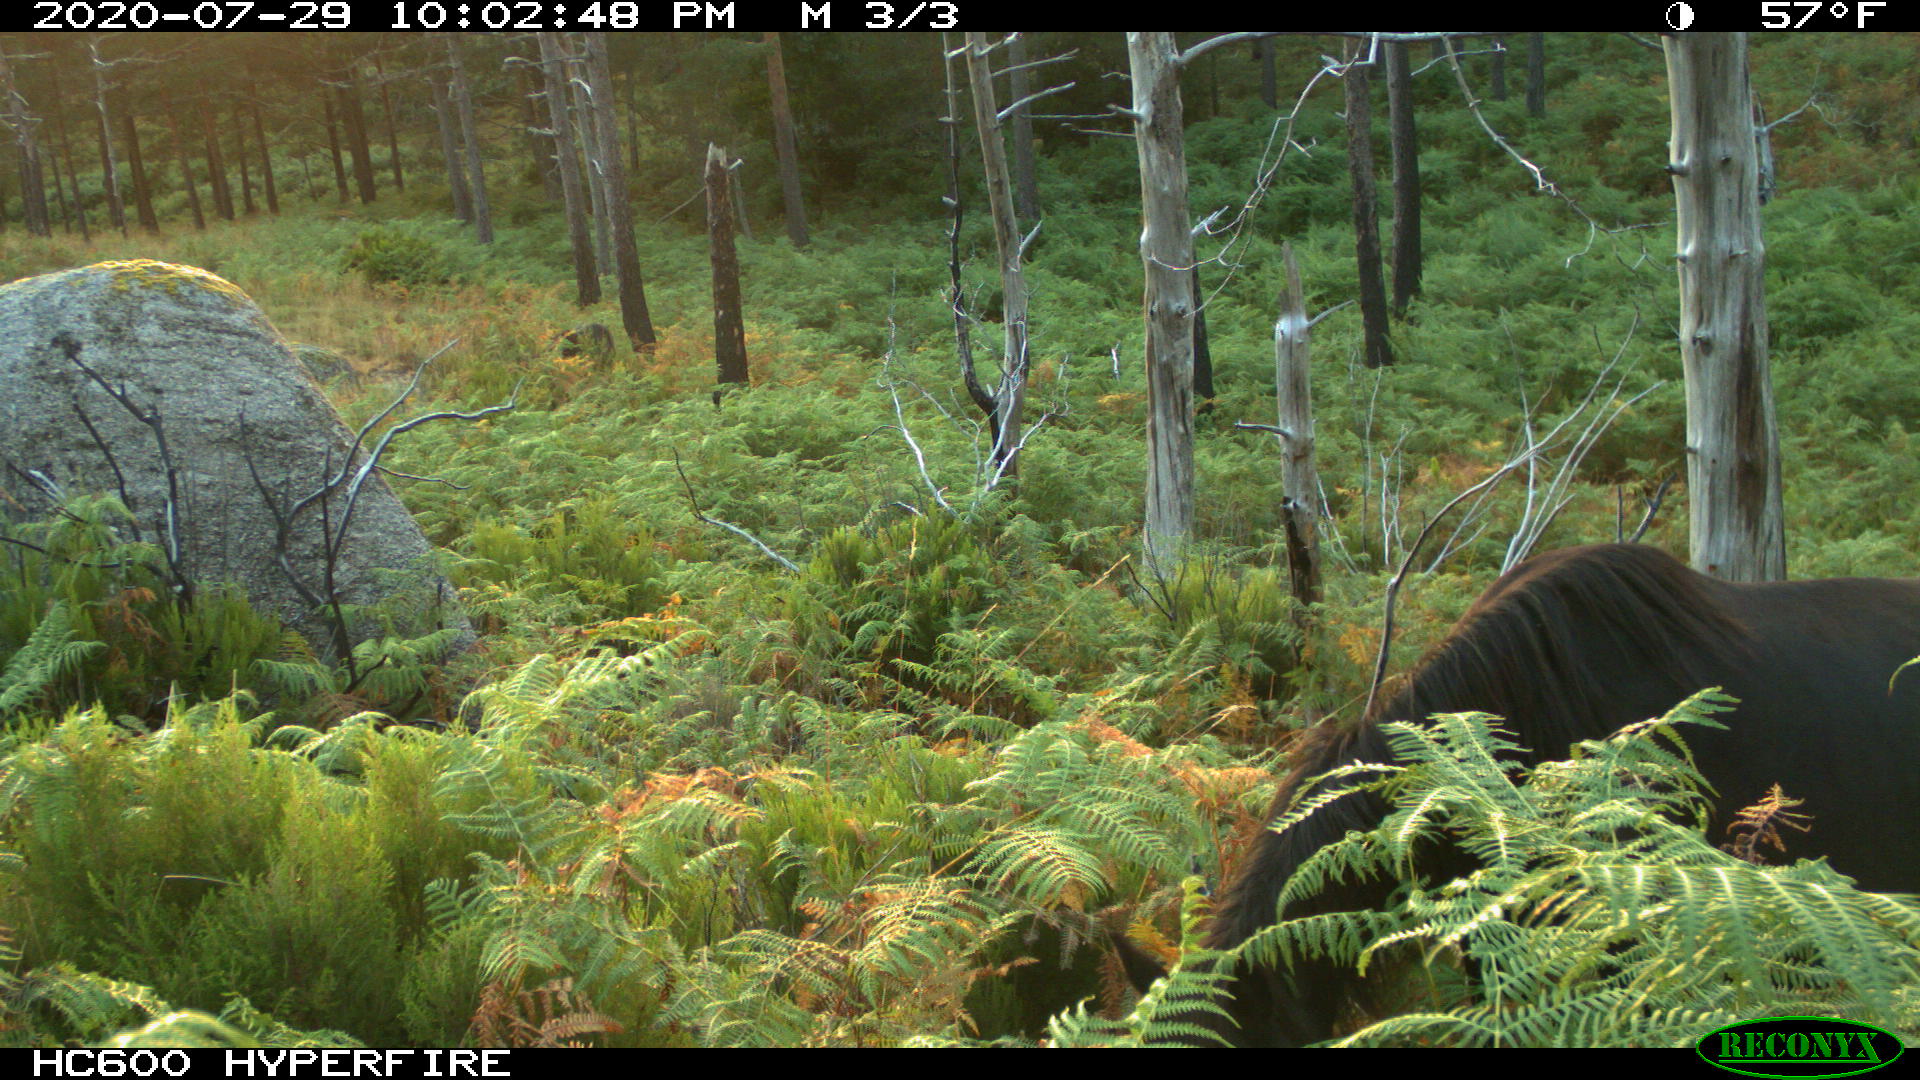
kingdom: Animalia
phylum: Chordata
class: Mammalia
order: Perissodactyla
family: Equidae
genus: Equus
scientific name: Equus caballus
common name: Horse
